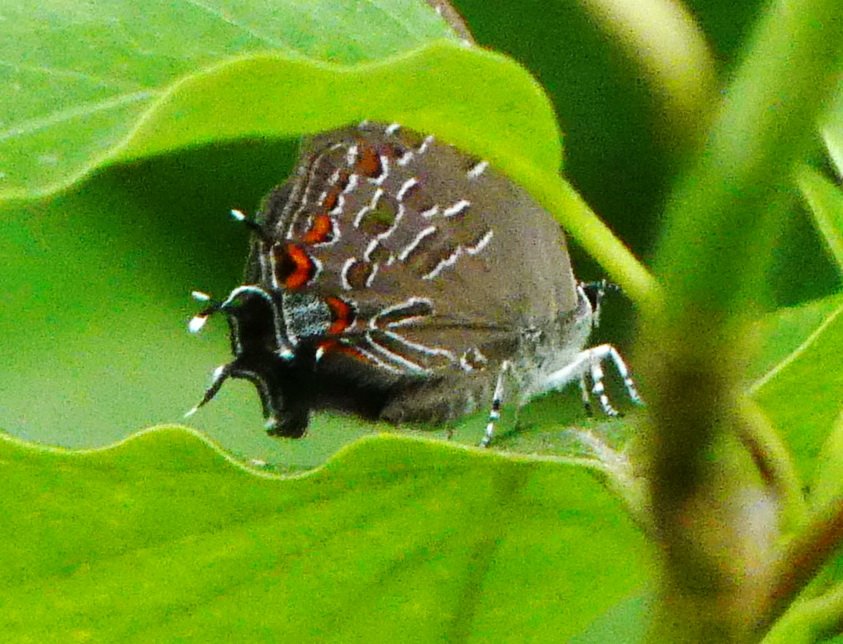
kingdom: Animalia
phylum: Arthropoda
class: Insecta
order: Lepidoptera
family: Lycaenidae
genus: Satyrium
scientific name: Satyrium liparops
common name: Striped Hairstreak
